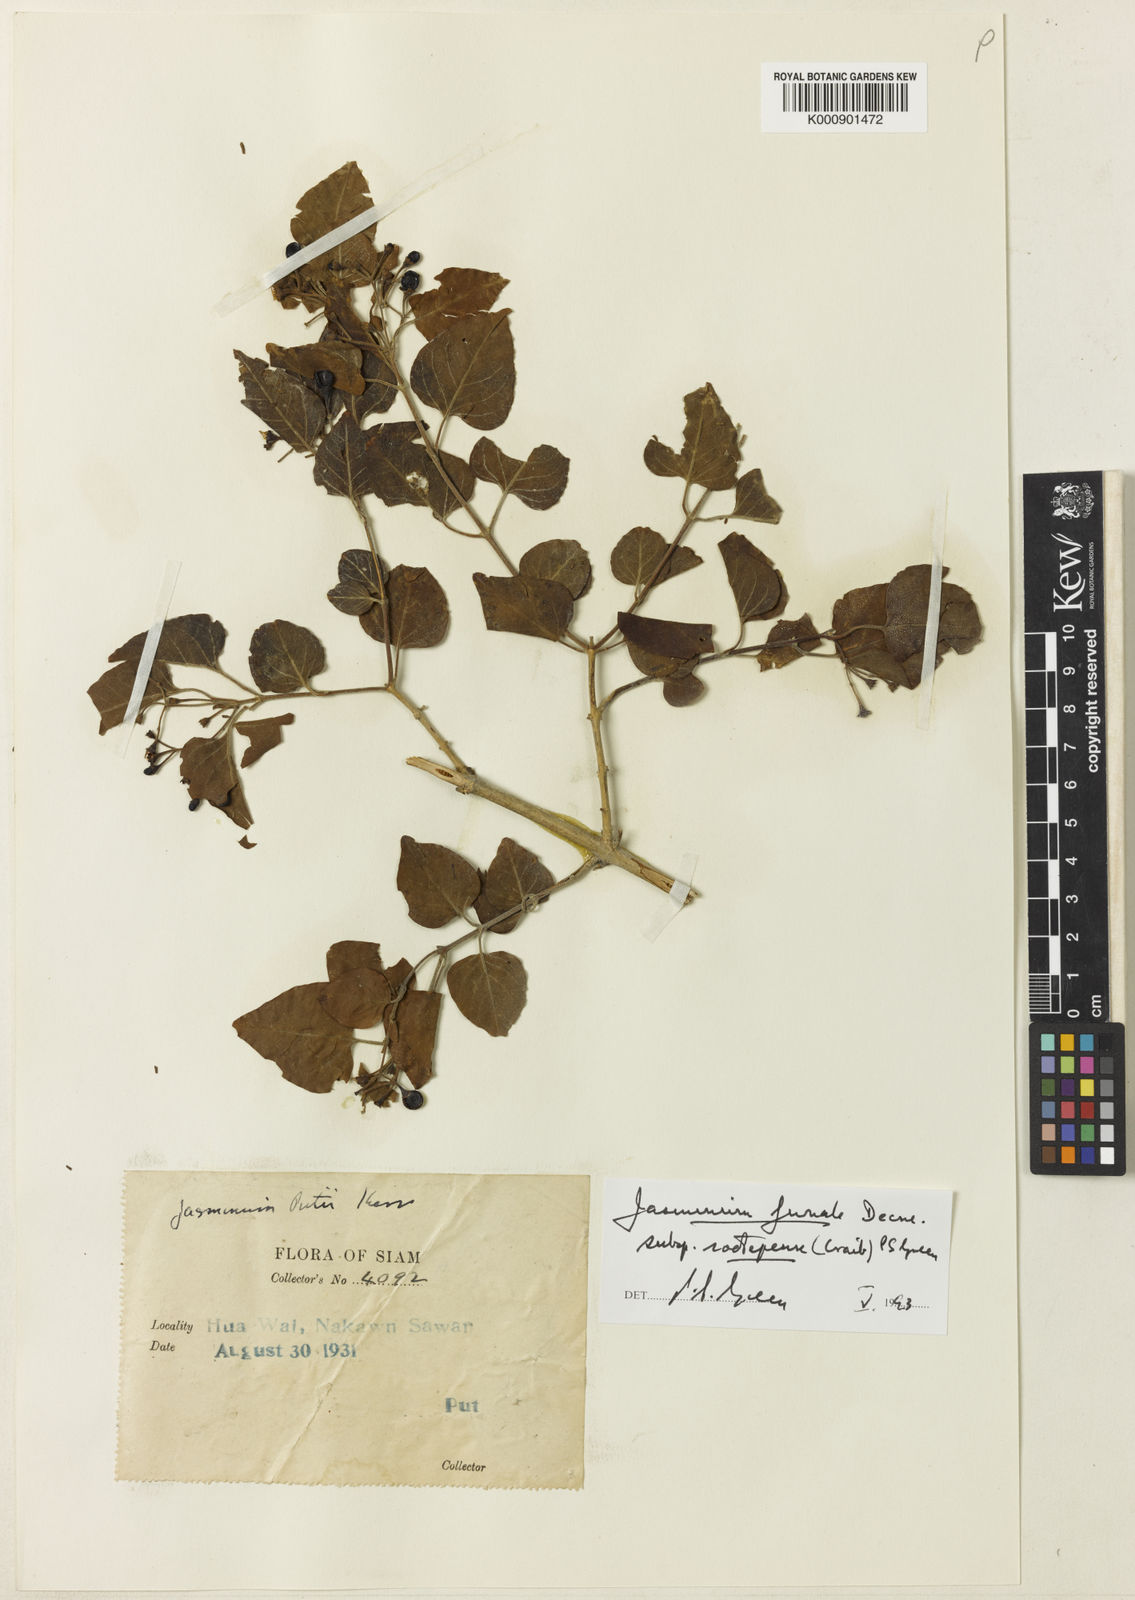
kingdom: Plantae
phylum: Tracheophyta
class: Magnoliopsida
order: Lamiales
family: Oleaceae
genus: Jasminum
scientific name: Jasminum simplicifolium
